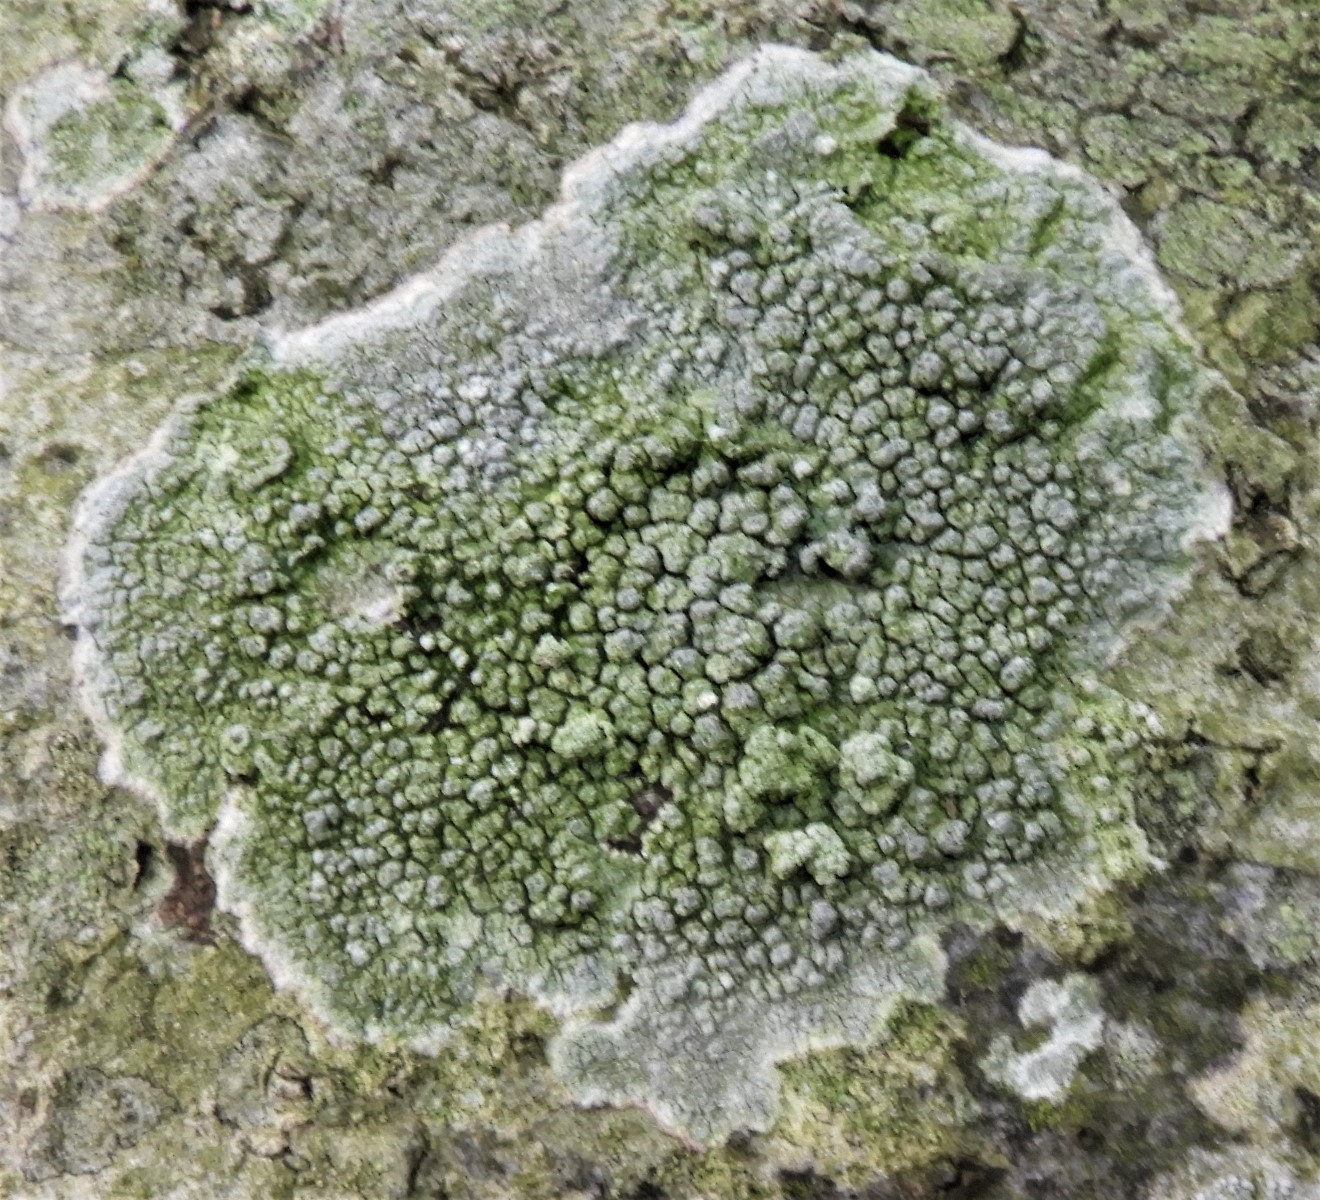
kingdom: Fungi
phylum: Ascomycota
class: Lecanoromycetes
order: Pertusariales
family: Pertusariaceae
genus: Pertusaria
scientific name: Pertusaria pertusa
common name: almindelig prikvortelav
